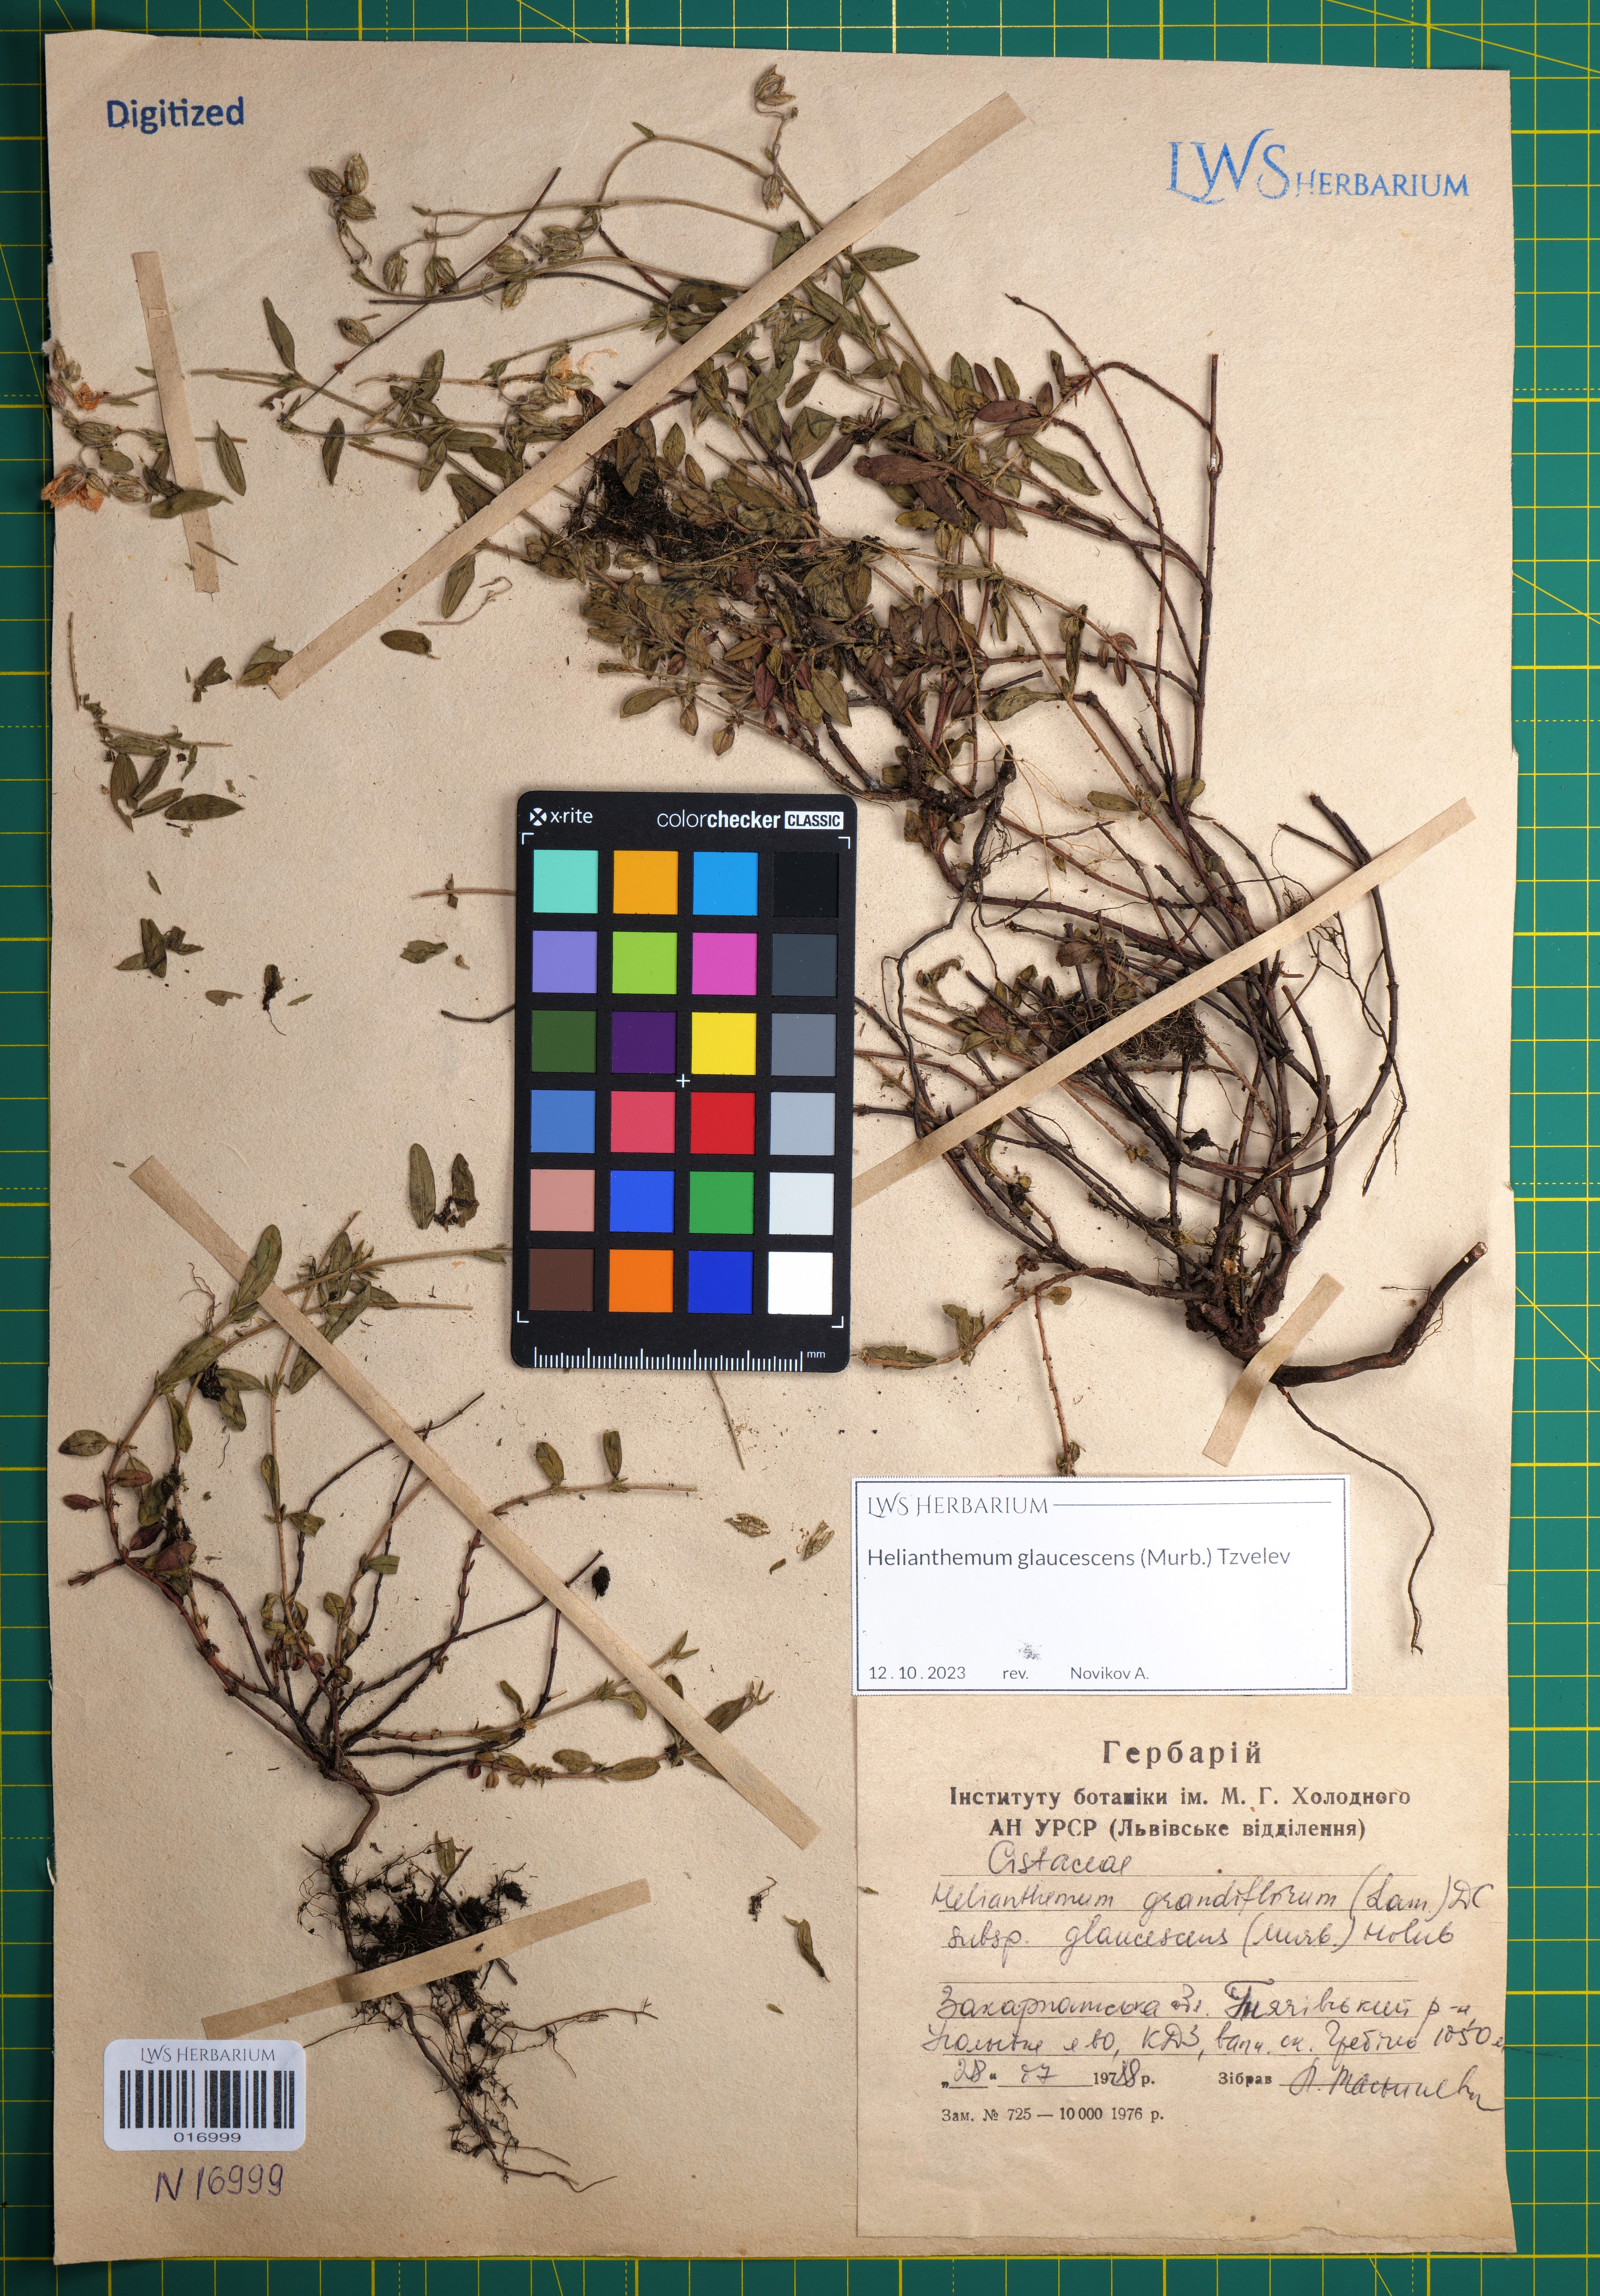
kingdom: Plantae
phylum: Tracheophyta
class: Magnoliopsida
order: Malvales
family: Cistaceae
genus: Helianthemum
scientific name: Helianthemum nummularium
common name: Common rock-rose
